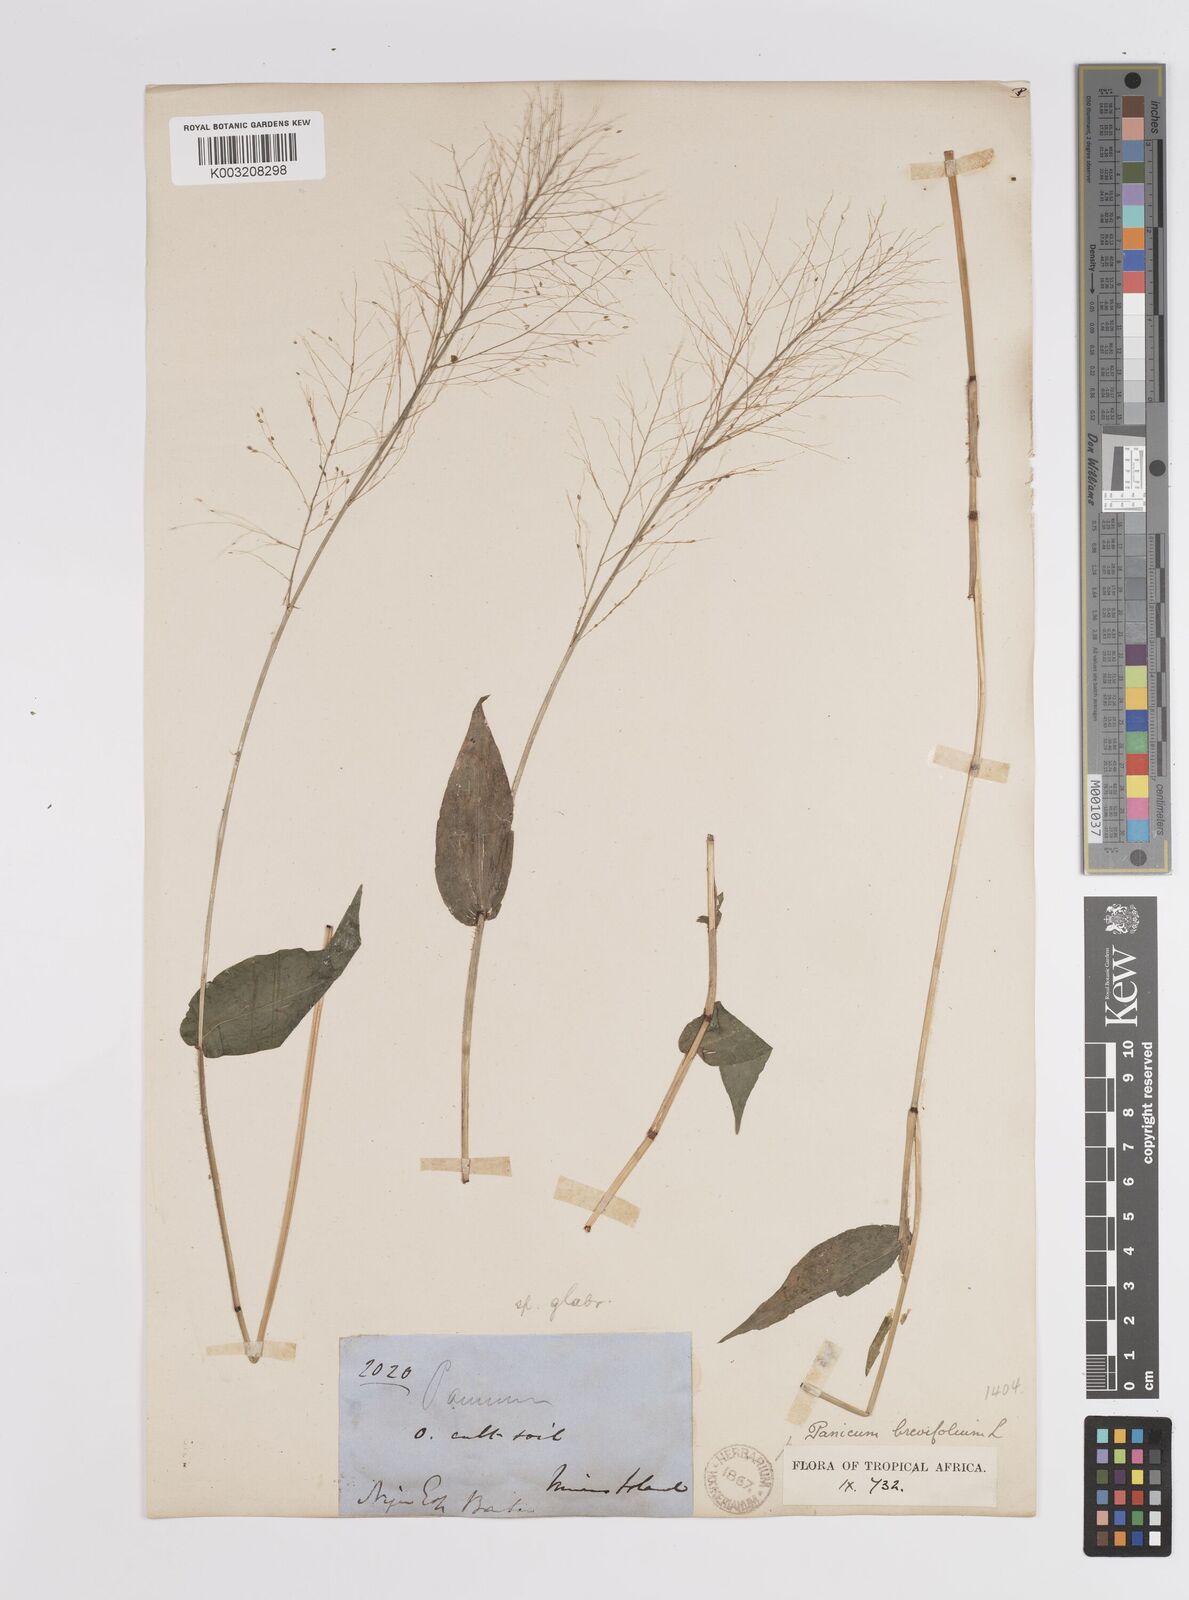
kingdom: Plantae
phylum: Tracheophyta
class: Liliopsida
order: Poales
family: Poaceae
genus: Panicum
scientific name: Panicum brevifolium
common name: Shortleaf panic grass
